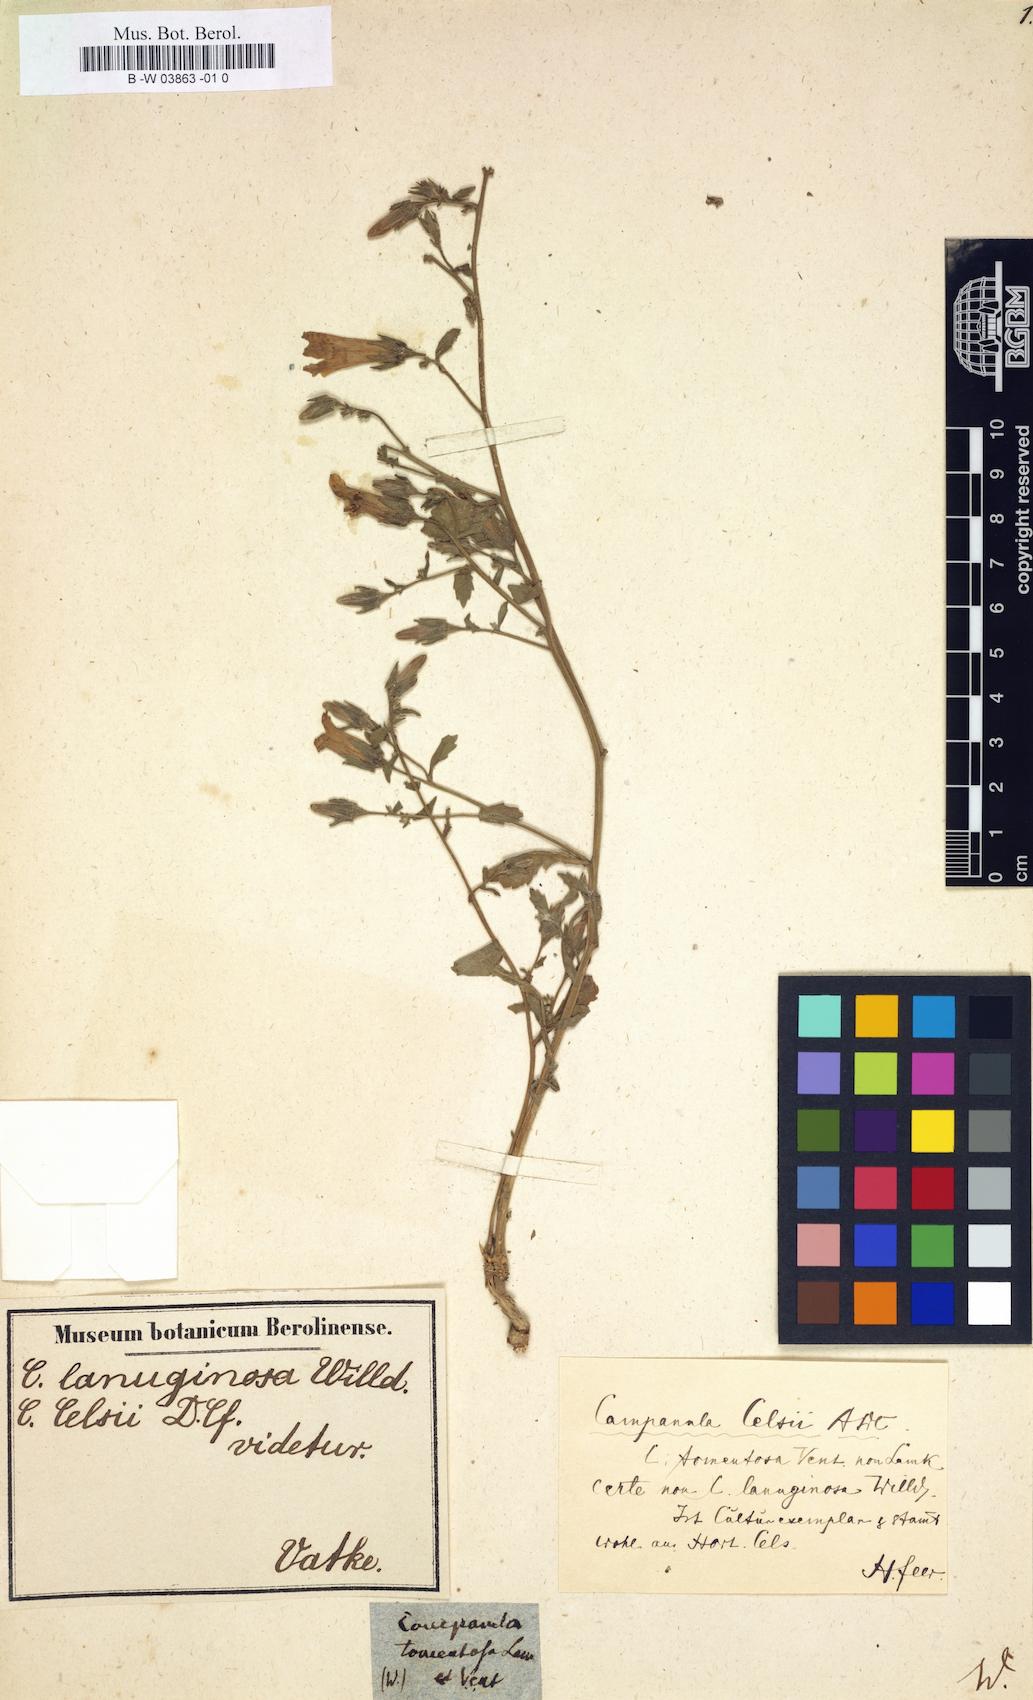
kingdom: Plantae
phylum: Tracheophyta
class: Magnoliopsida
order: Asterales
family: Campanulaceae
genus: Campanula
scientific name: Campanula tomentosa
